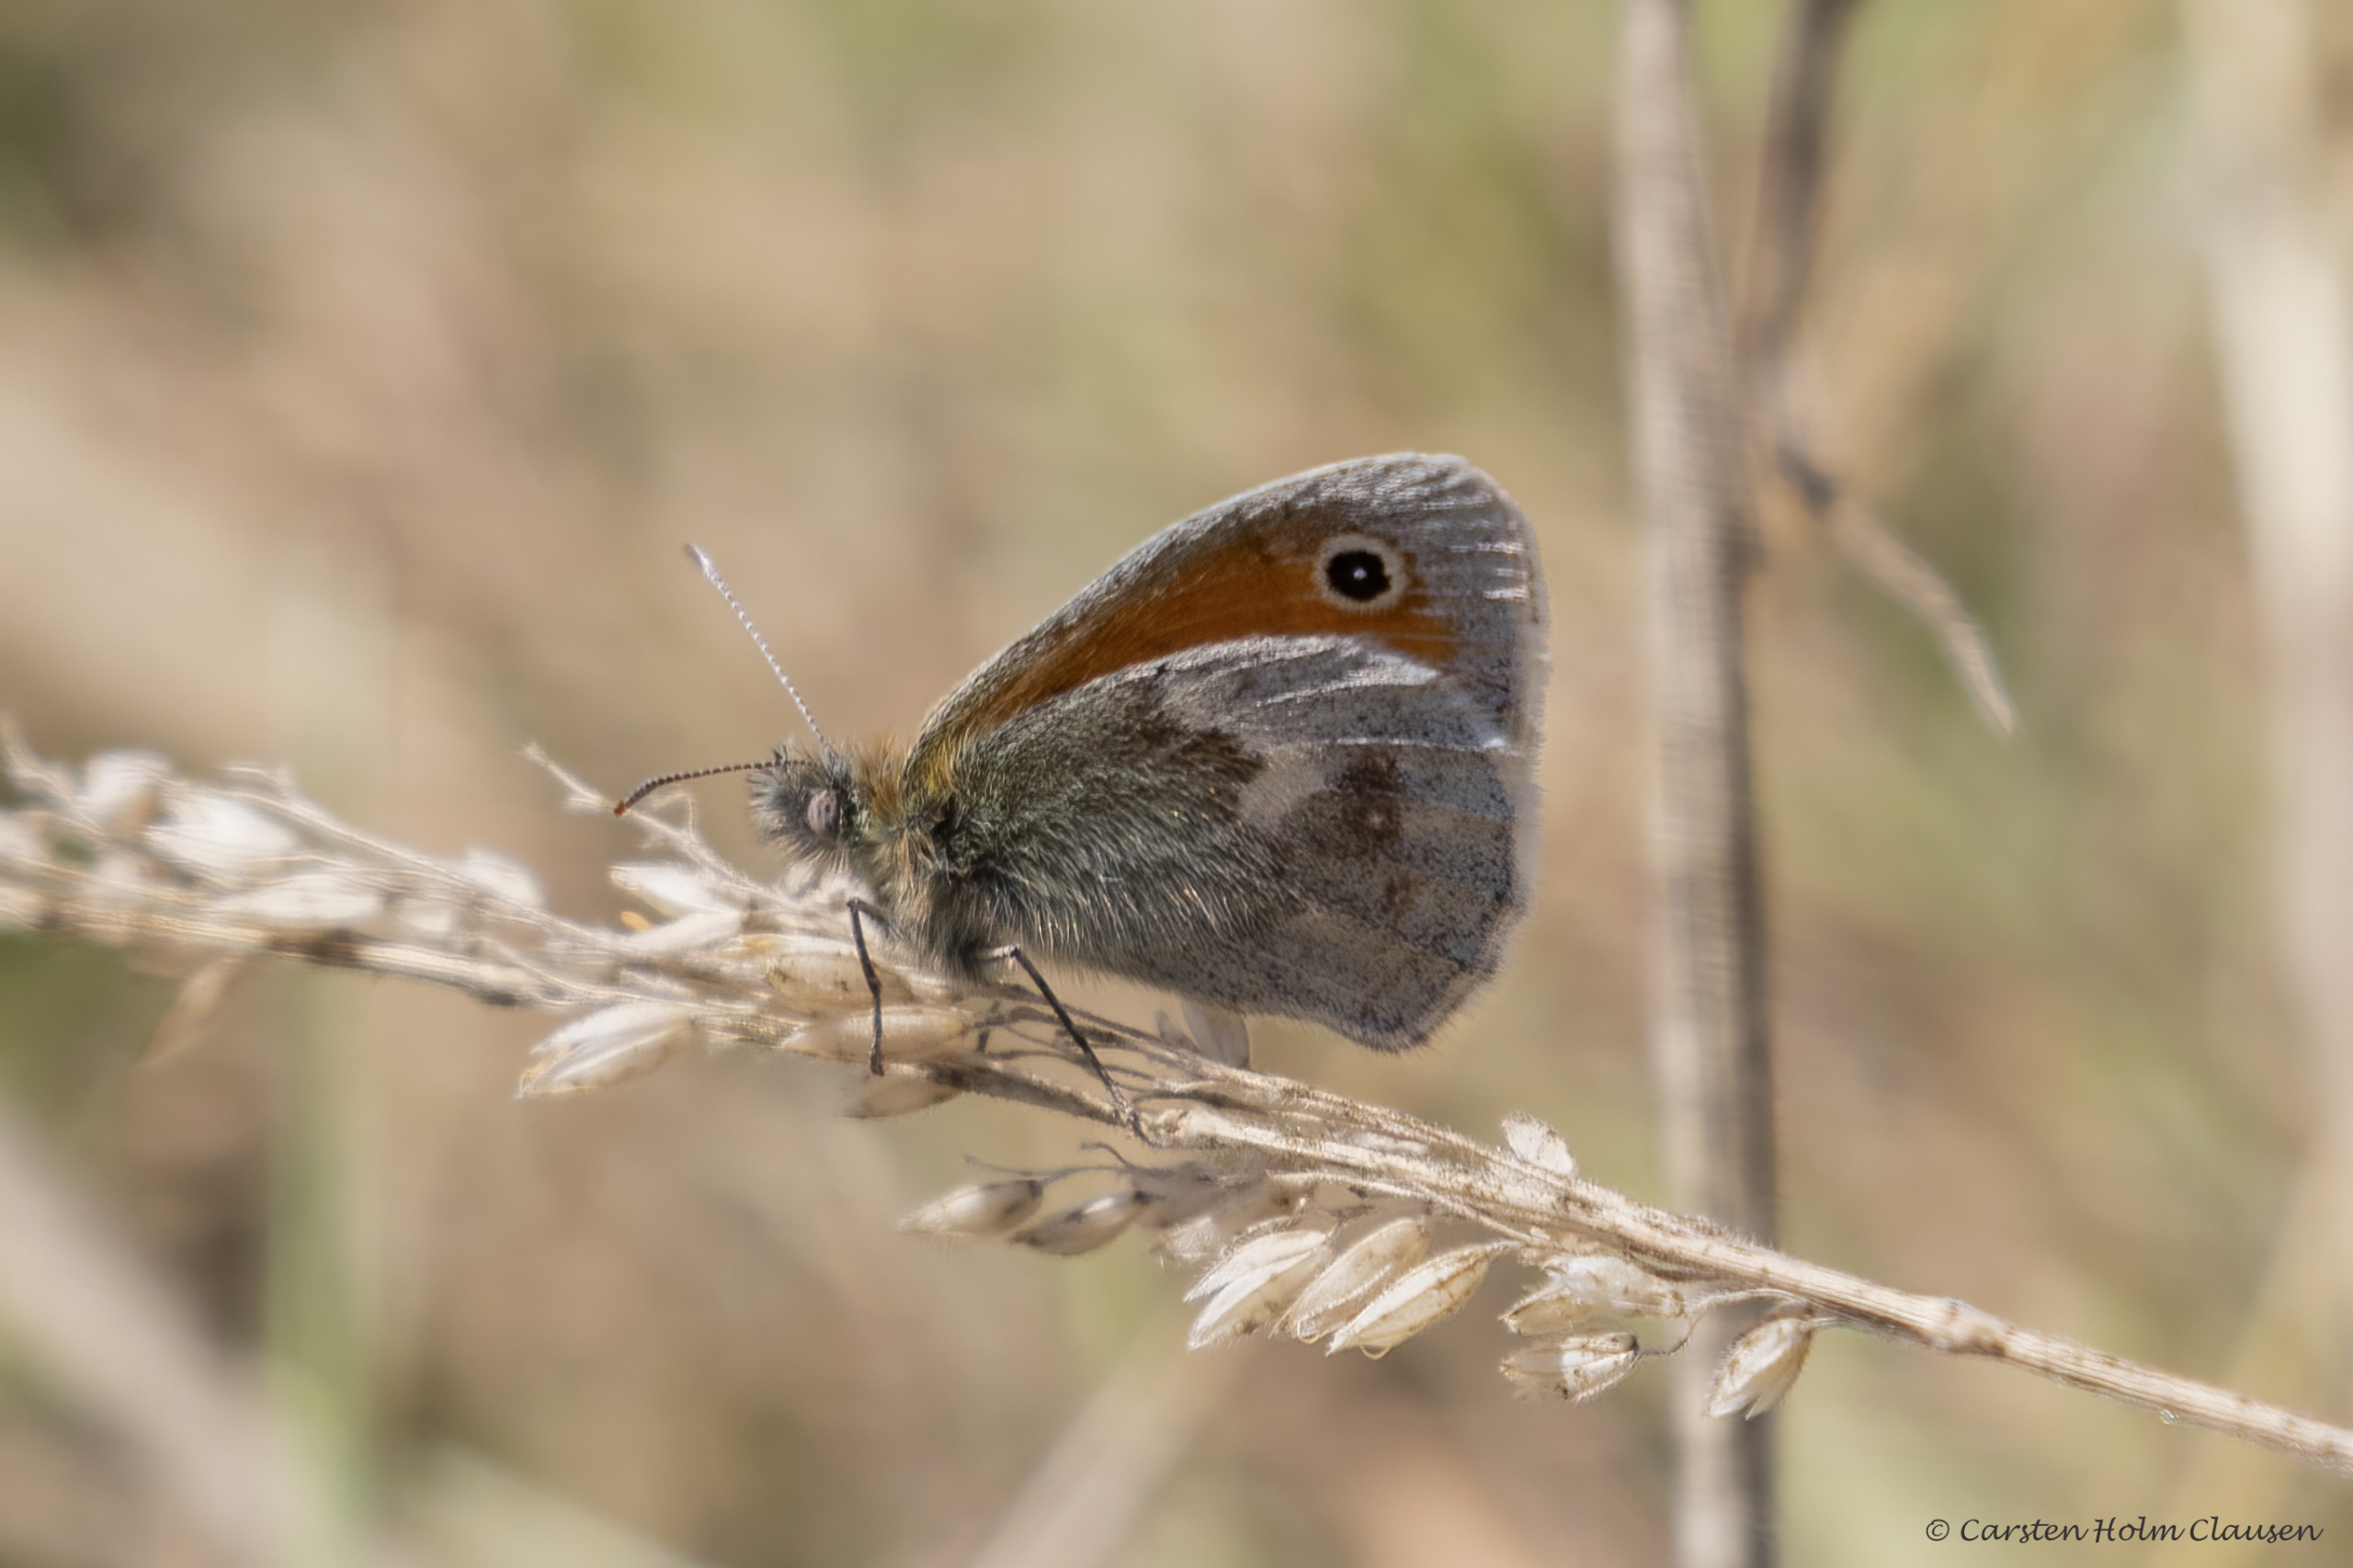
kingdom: Animalia
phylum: Arthropoda
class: Insecta
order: Lepidoptera
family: Nymphalidae
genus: Coenonympha
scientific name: Coenonympha pamphilus
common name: Okkergul randøje
